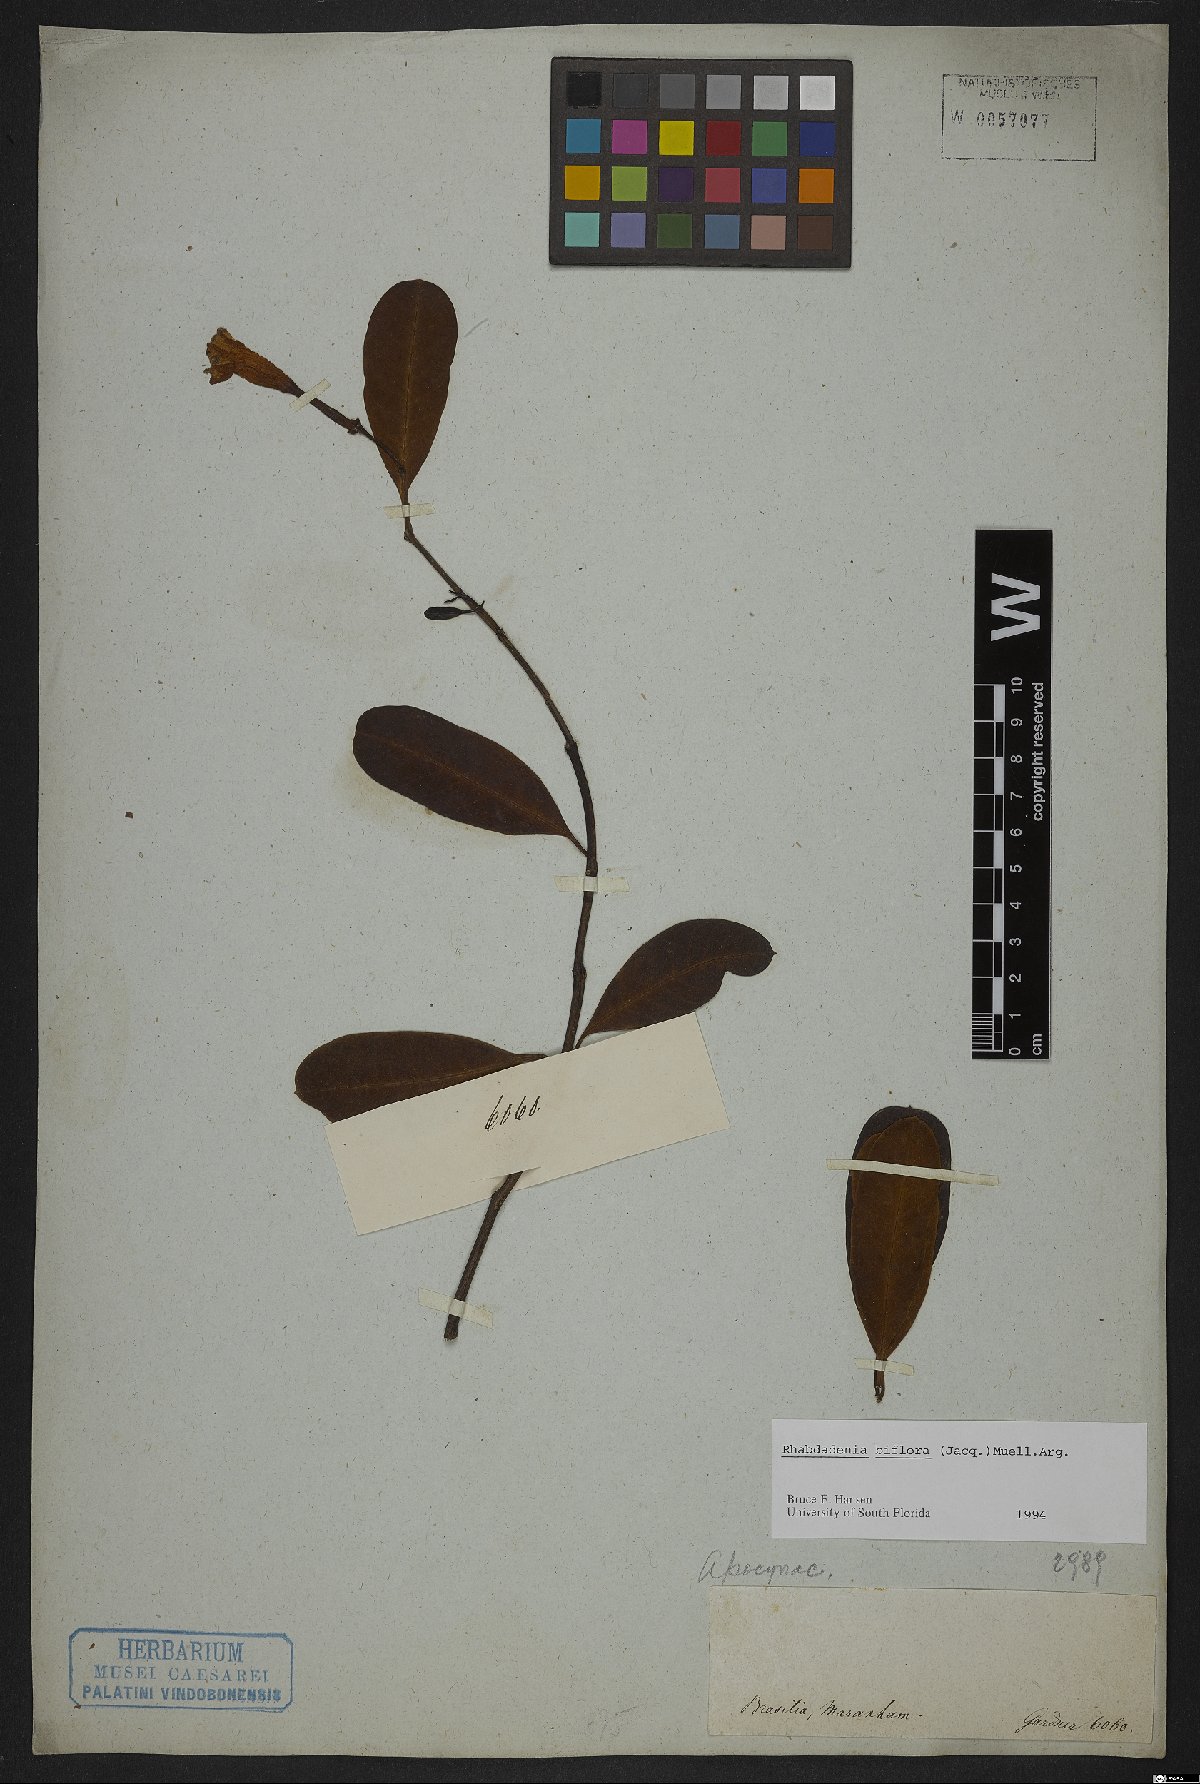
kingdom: Plantae
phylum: Tracheophyta
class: Magnoliopsida
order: Gentianales
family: Apocynaceae
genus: Rhabdadenia
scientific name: Rhabdadenia biflora
